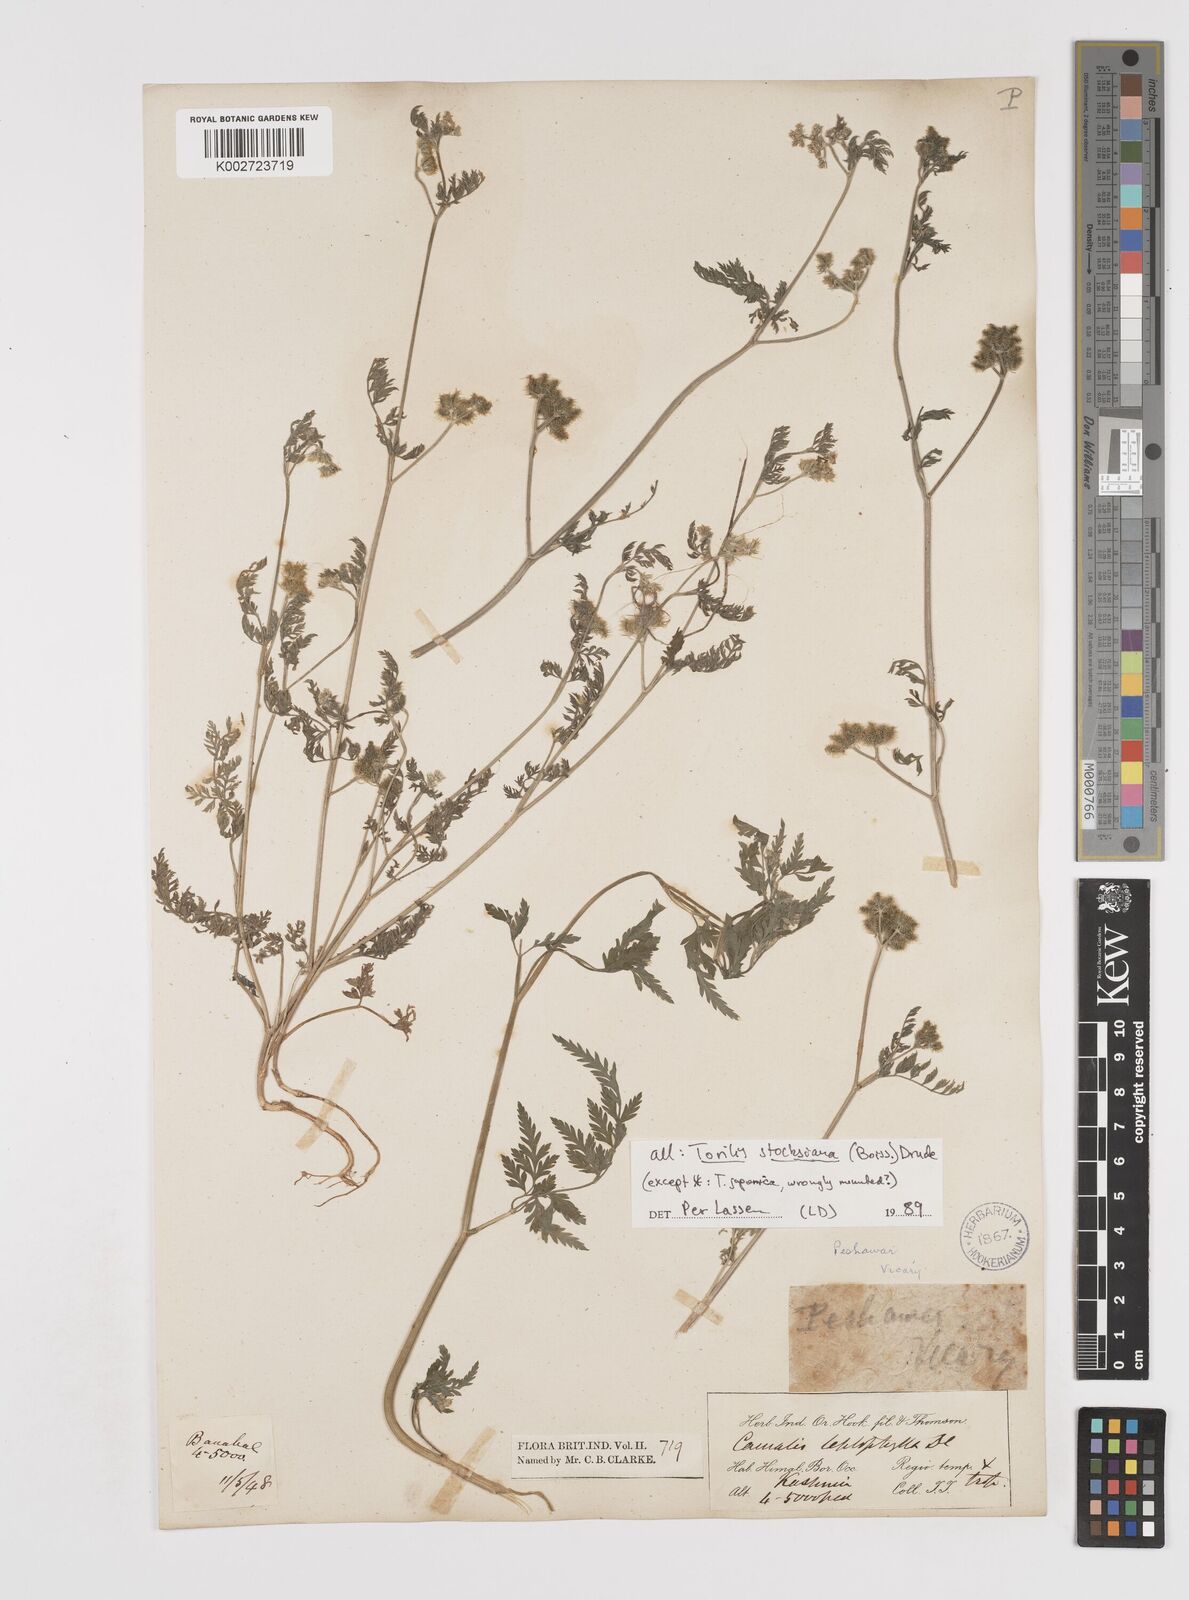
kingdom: Plantae
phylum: Tracheophyta
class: Magnoliopsida
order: Apiales
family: Apiaceae
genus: Torilis
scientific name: Torilis stocksiana
